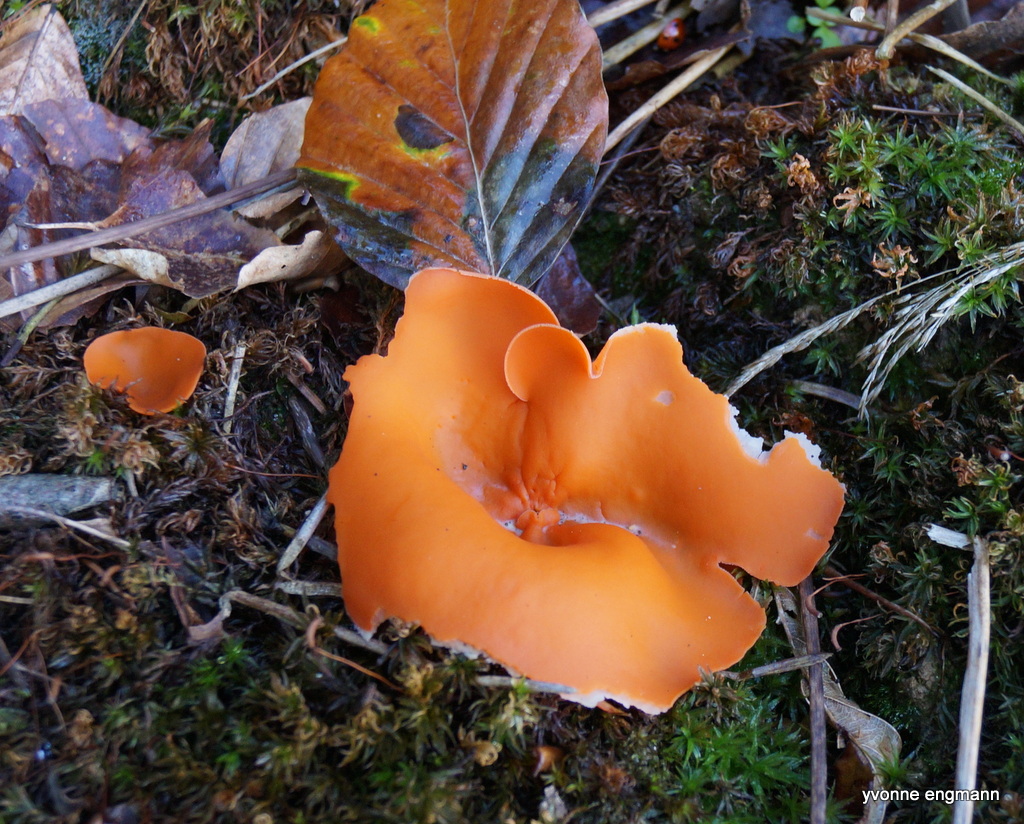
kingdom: Fungi
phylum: Ascomycota
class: Pezizomycetes
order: Pezizales
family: Pyronemataceae
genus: Aleuria
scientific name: Aleuria aurantia
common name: almindelig orangebæger
